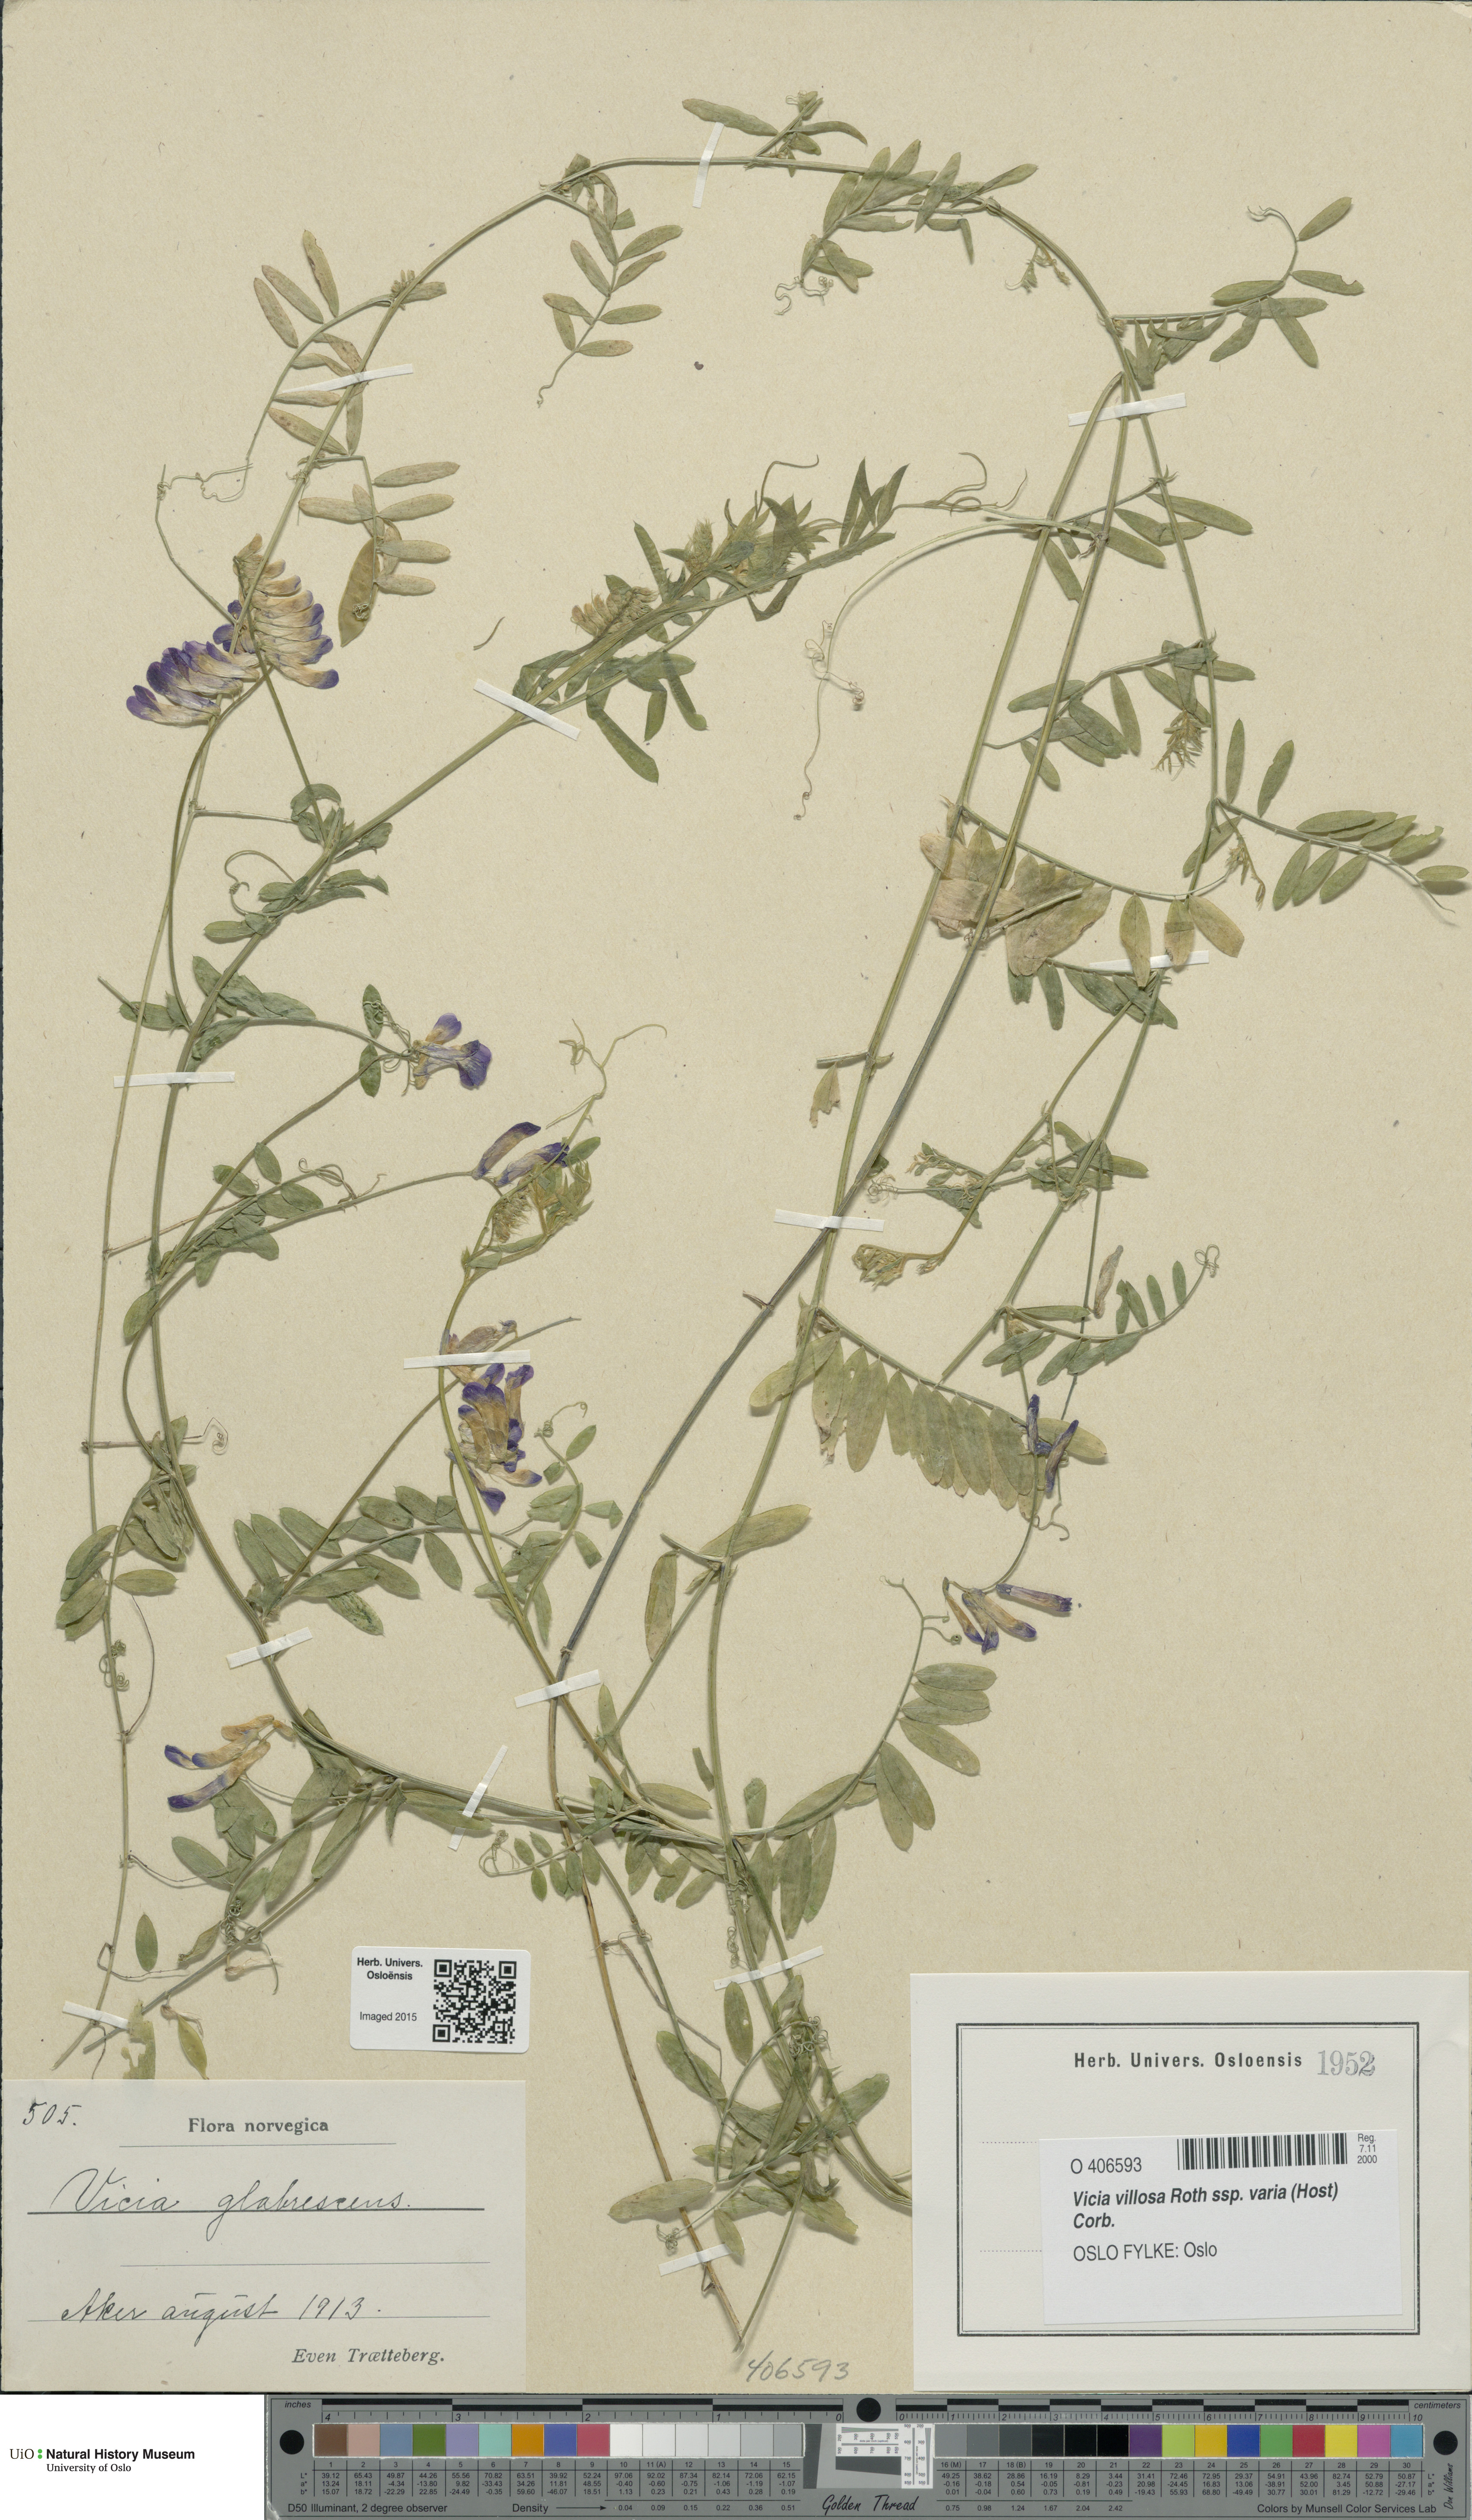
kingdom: Plantae
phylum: Tracheophyta
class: Magnoliopsida
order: Fabales
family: Fabaceae
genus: Vicia
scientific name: Vicia villosa
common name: Fodder vetch
